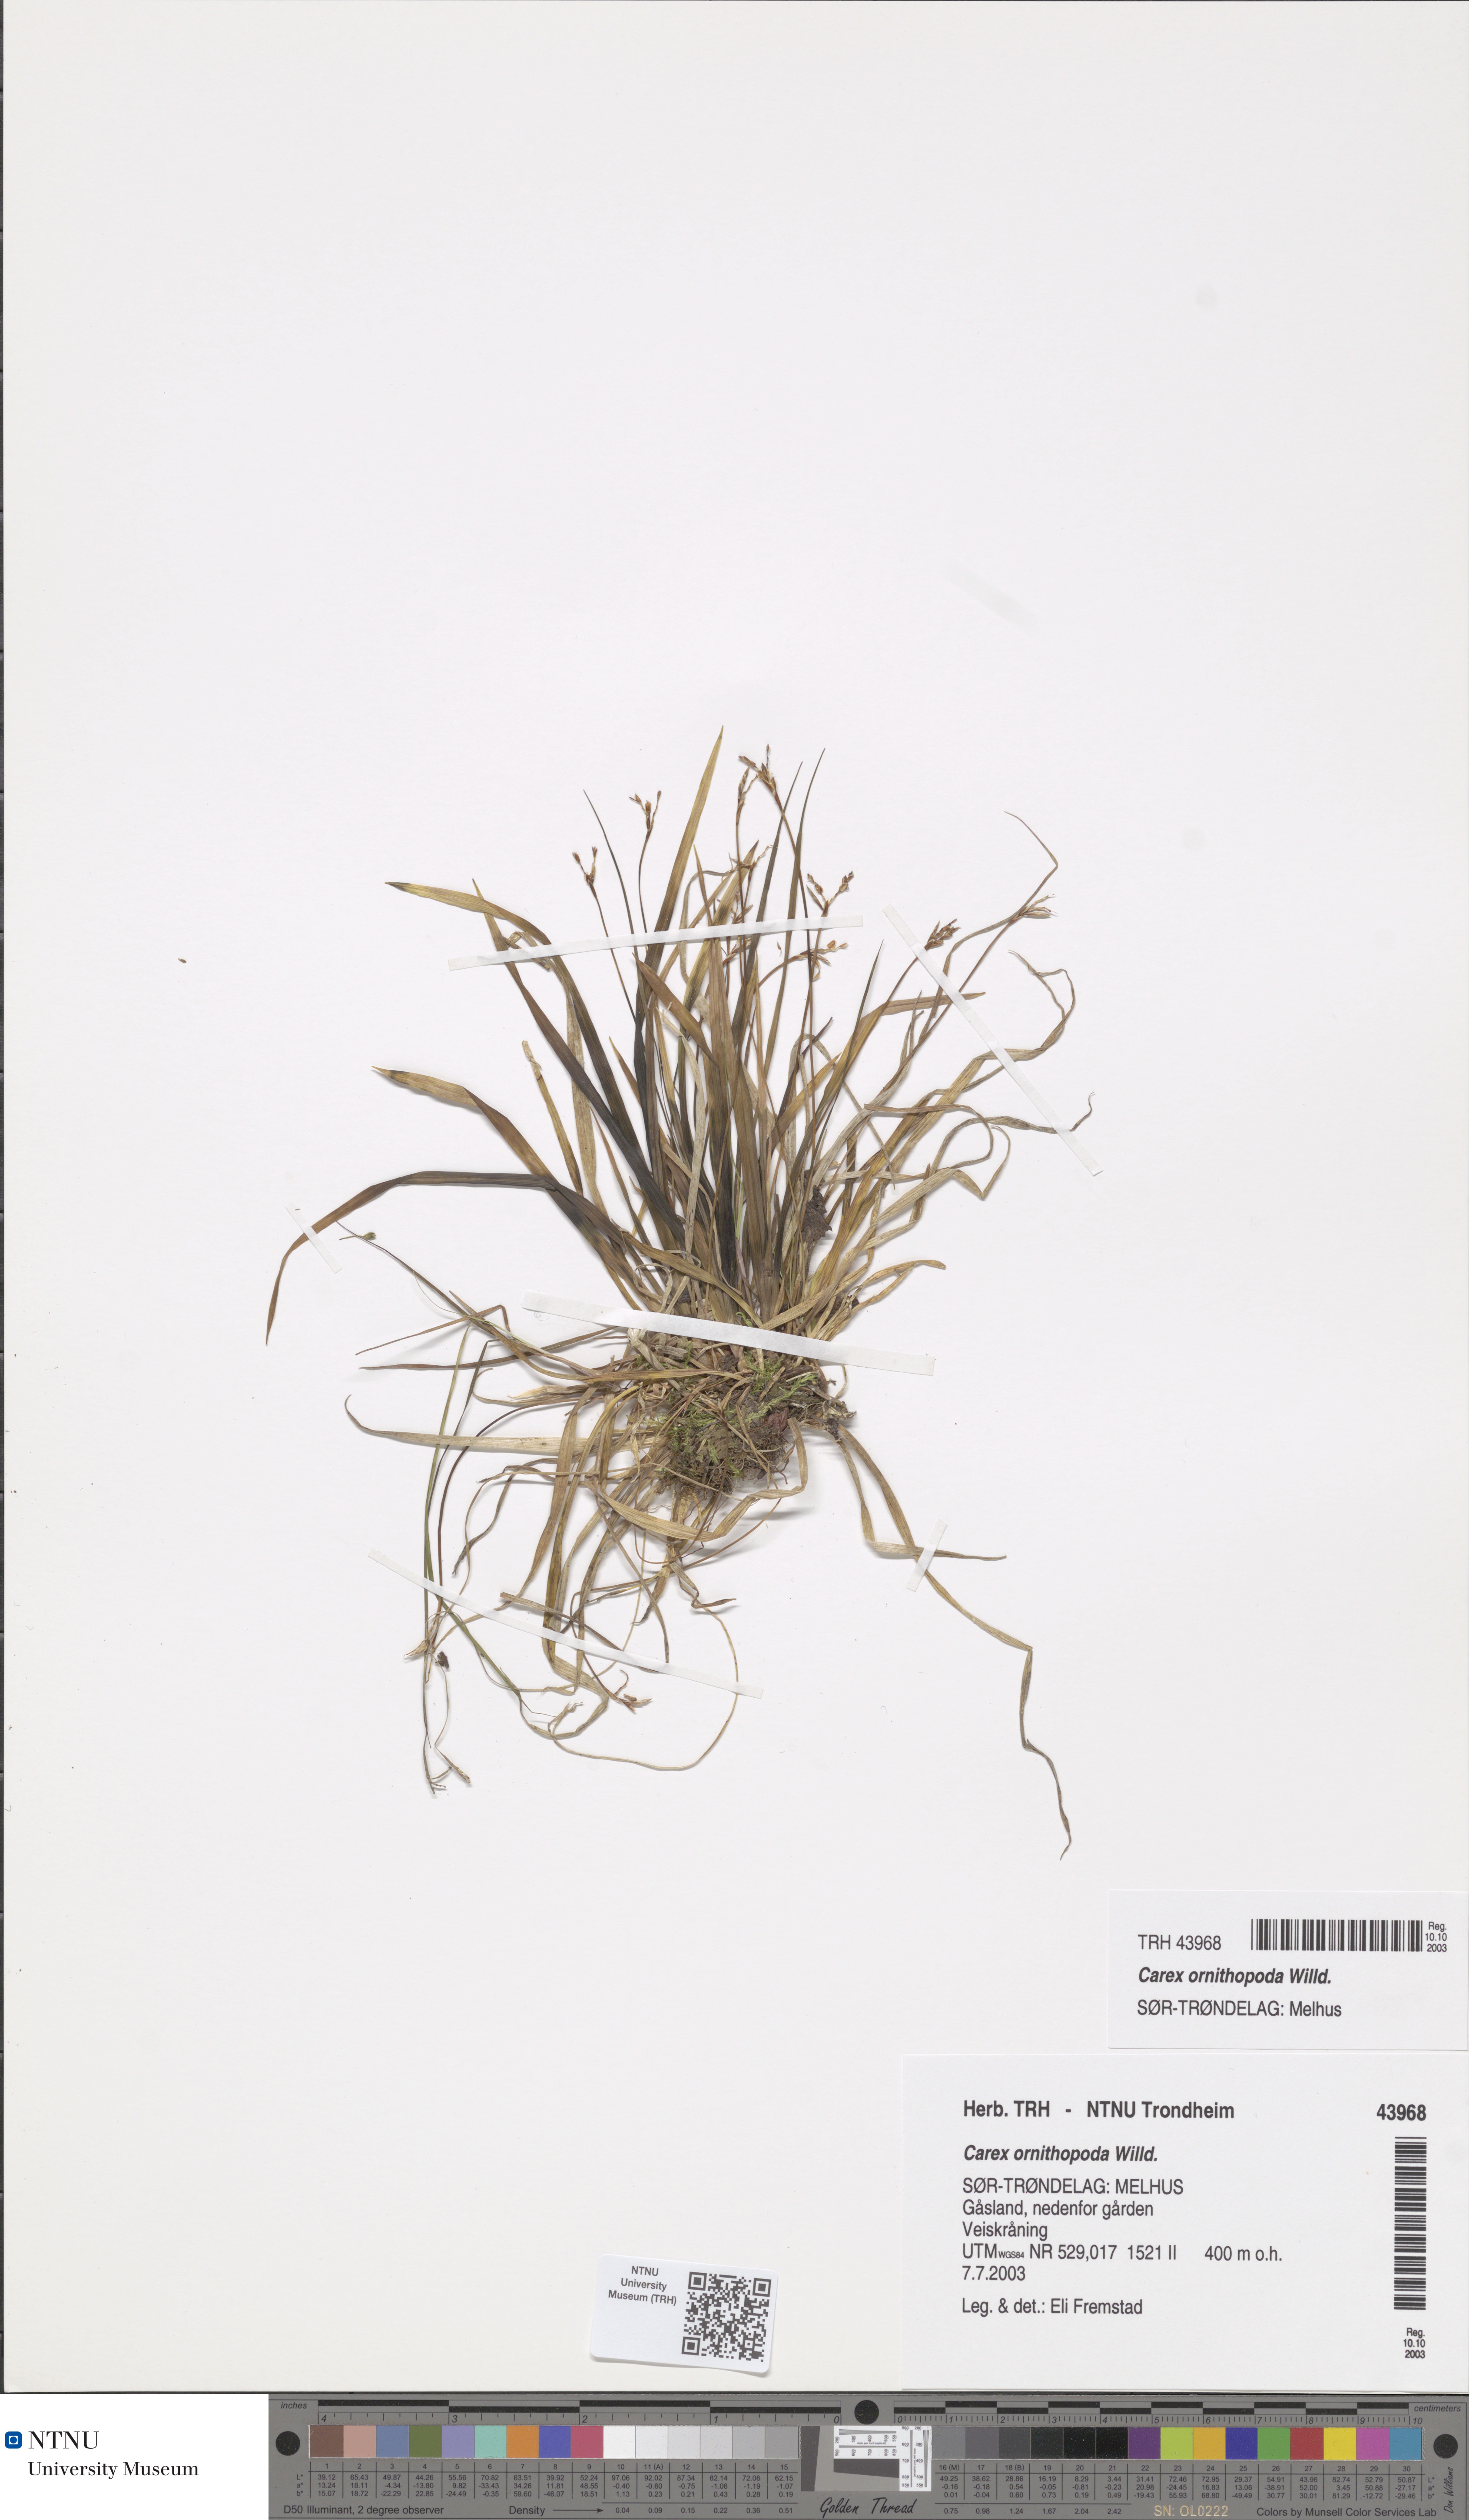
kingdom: Plantae
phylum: Tracheophyta
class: Liliopsida
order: Poales
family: Cyperaceae
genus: Carex
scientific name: Carex ornithopoda
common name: Bird's-foot sedge
